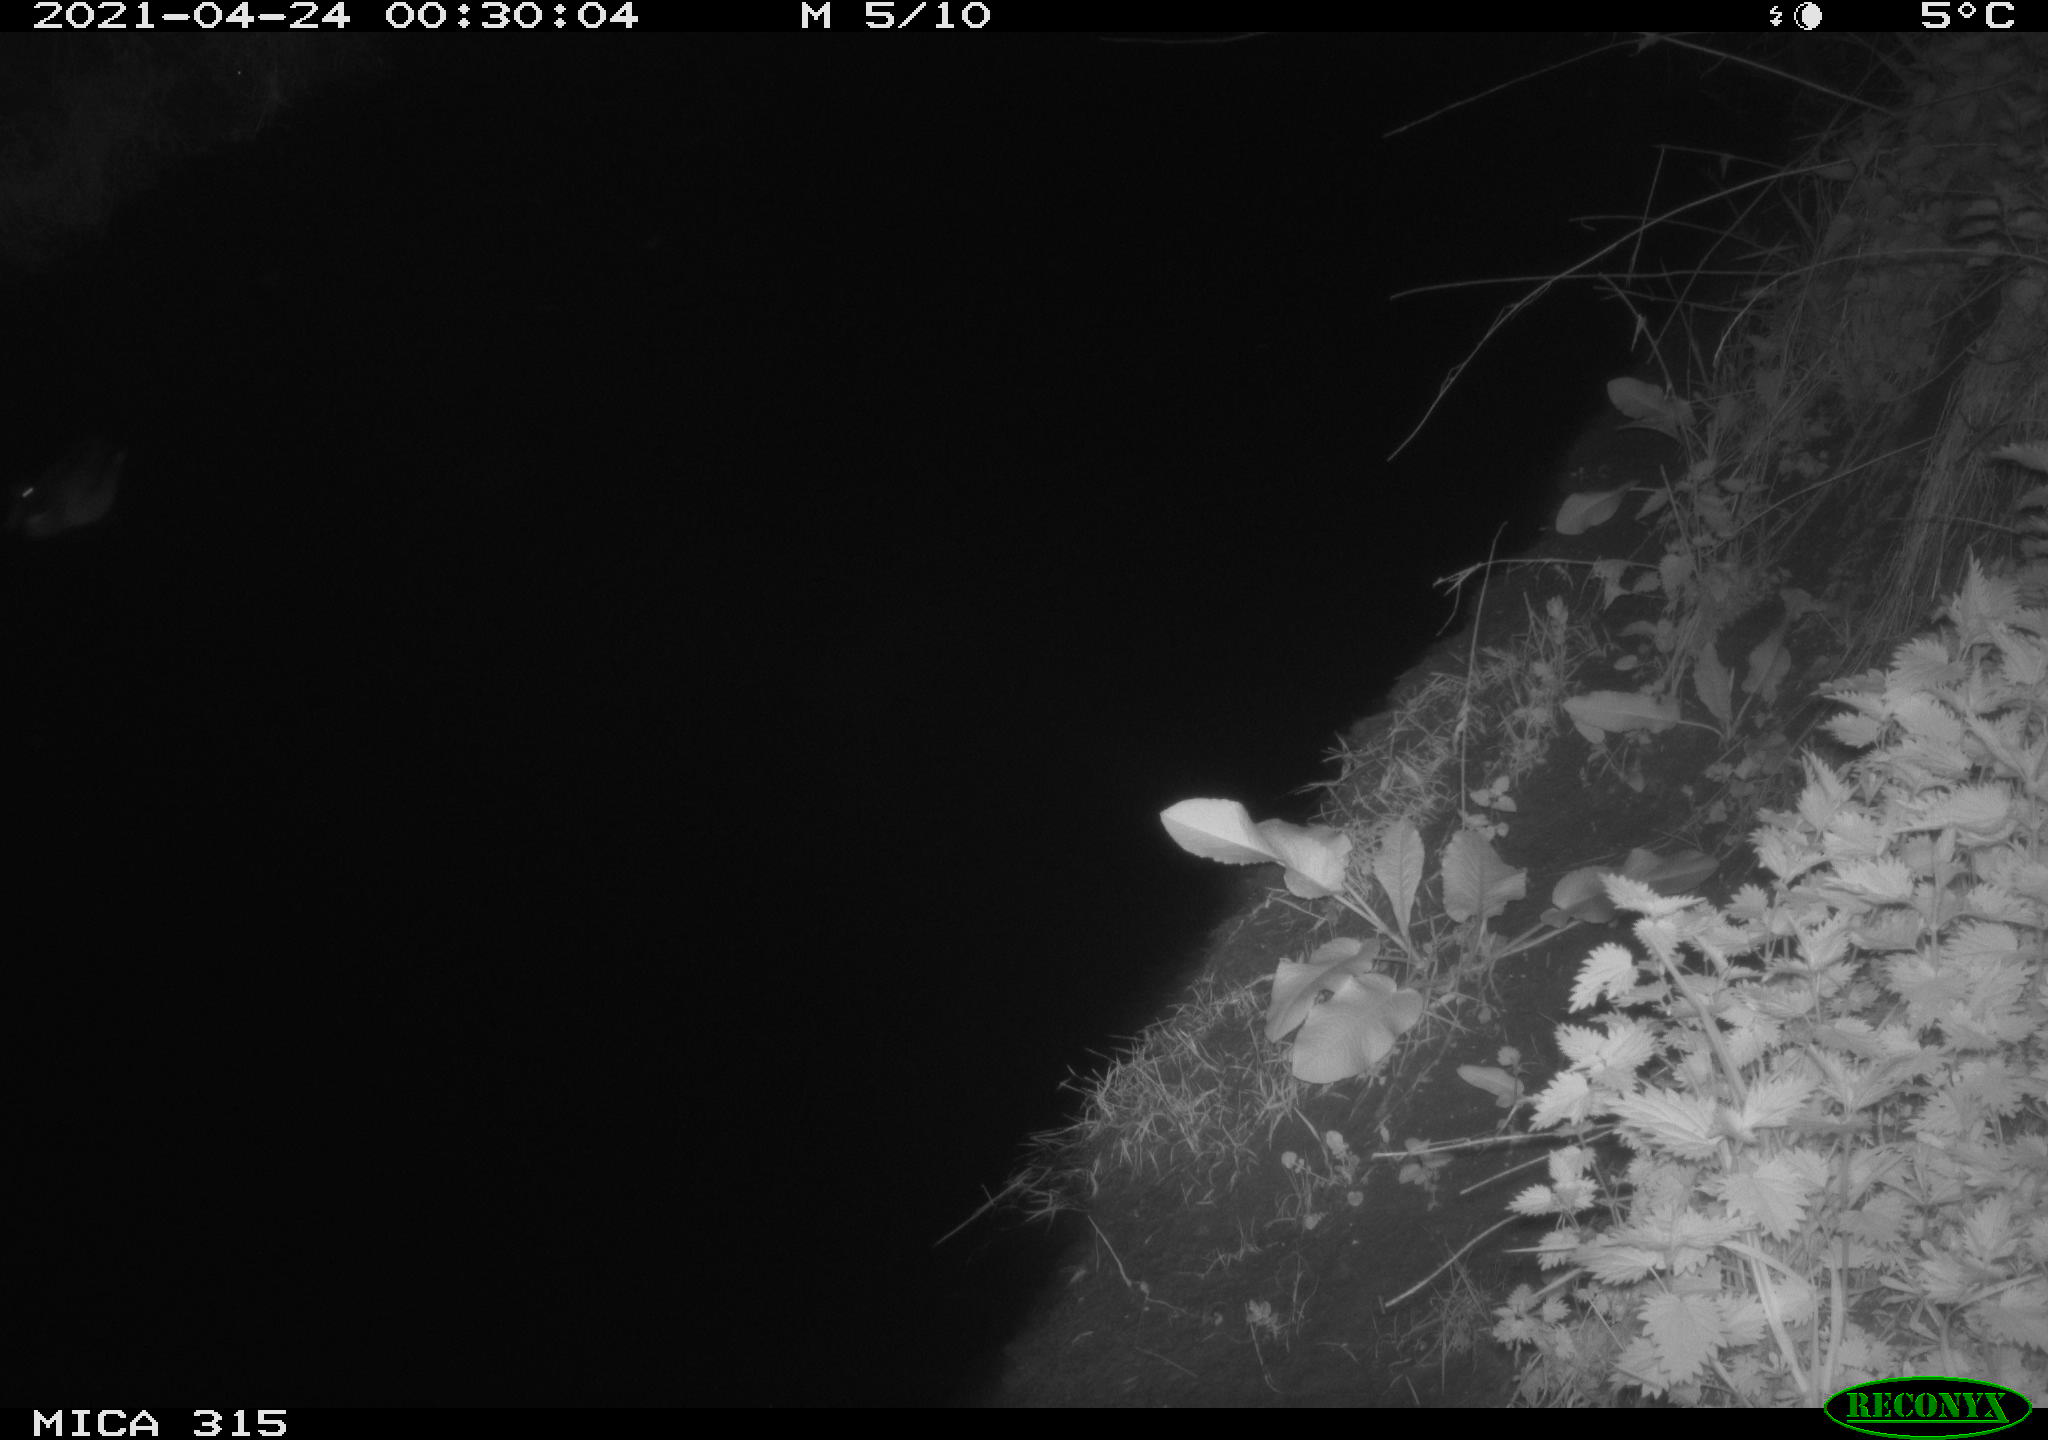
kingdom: Animalia
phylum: Chordata
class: Aves
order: Anseriformes
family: Anatidae
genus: Anas
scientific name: Anas
